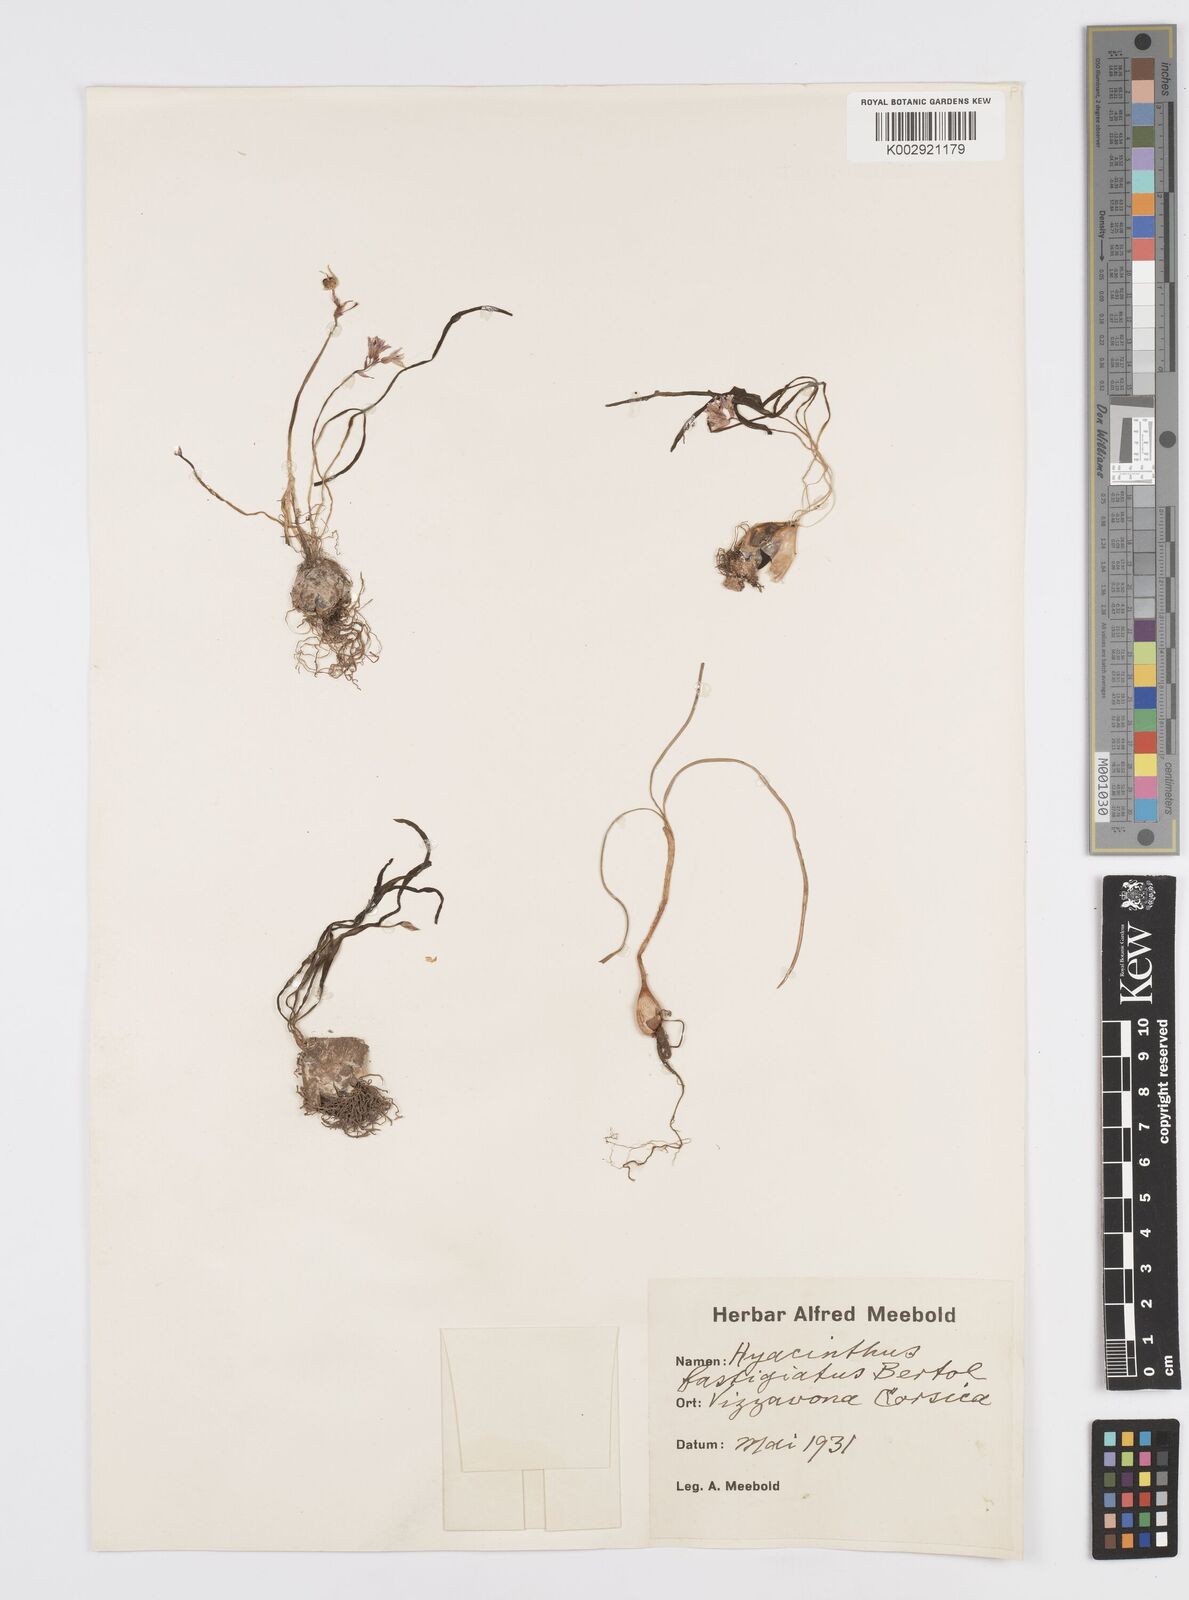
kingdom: Plantae
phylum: Tracheophyta
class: Liliopsida
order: Asparagales
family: Asparagaceae
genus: Brimeura
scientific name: Brimeura fastigiata
